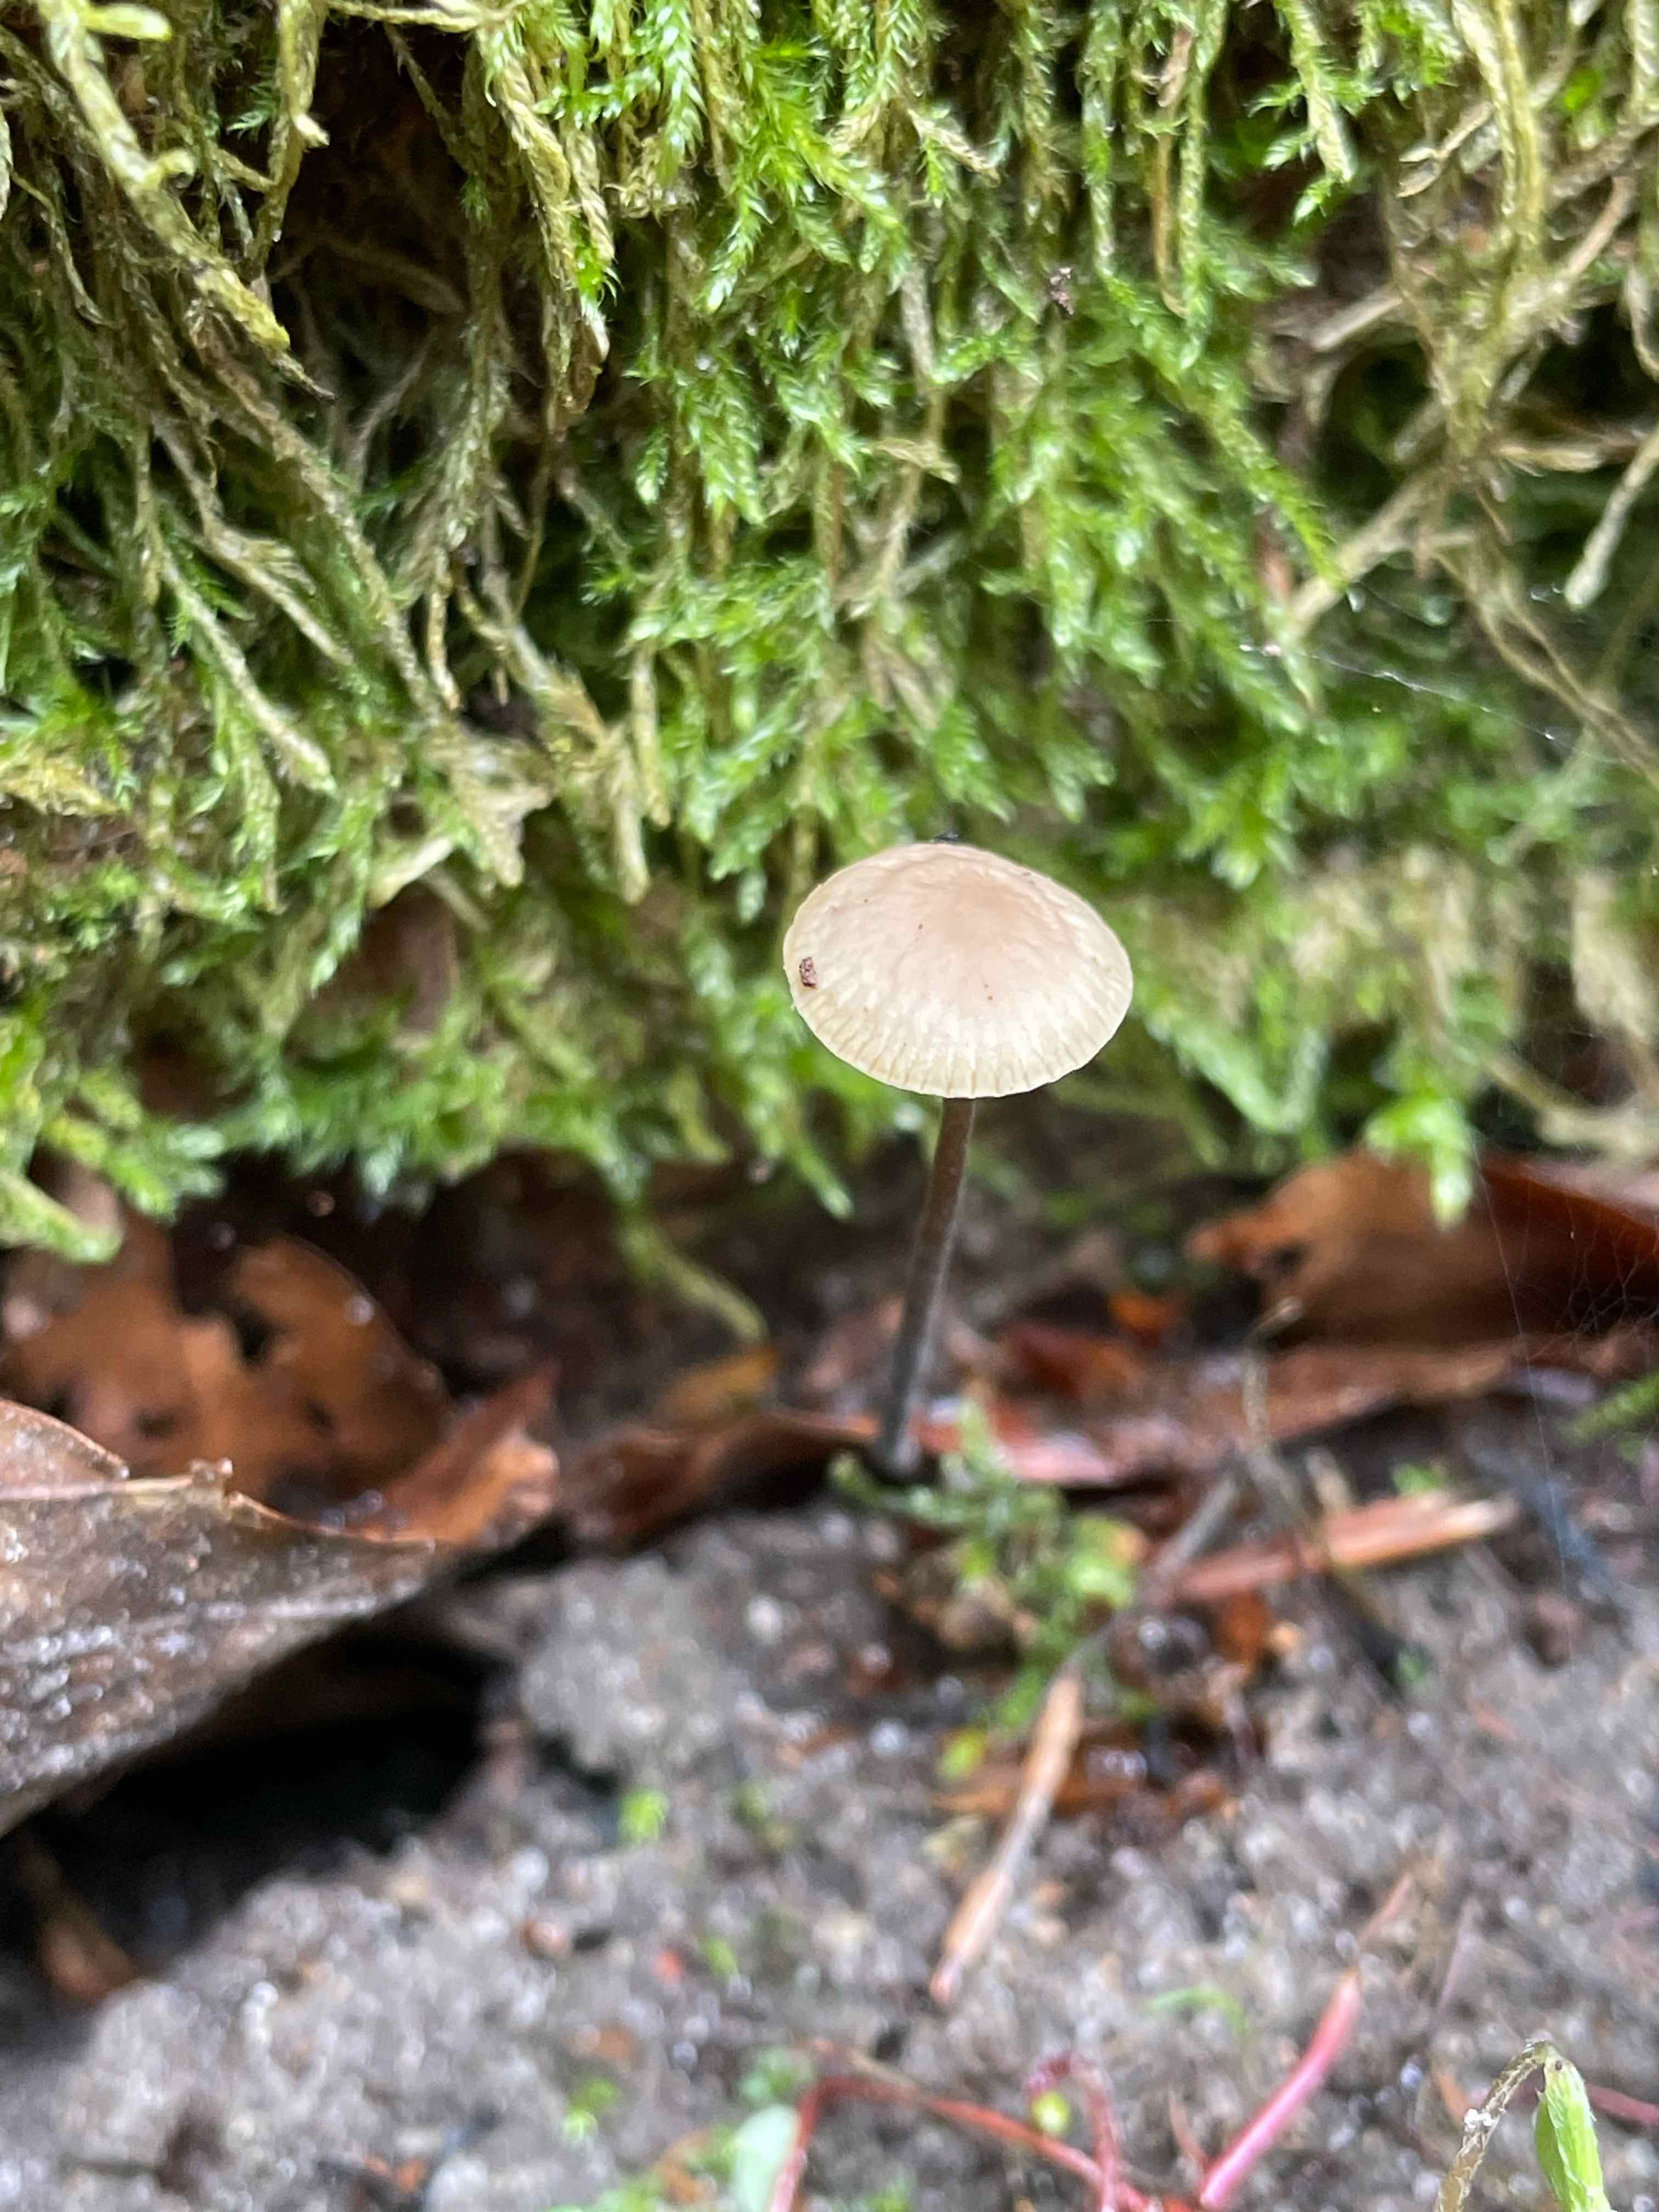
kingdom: Fungi
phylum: Basidiomycota
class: Agaricomycetes
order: Agaricales
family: Omphalotaceae
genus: Mycetinis
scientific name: Mycetinis alliaceus
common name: stor løghat
